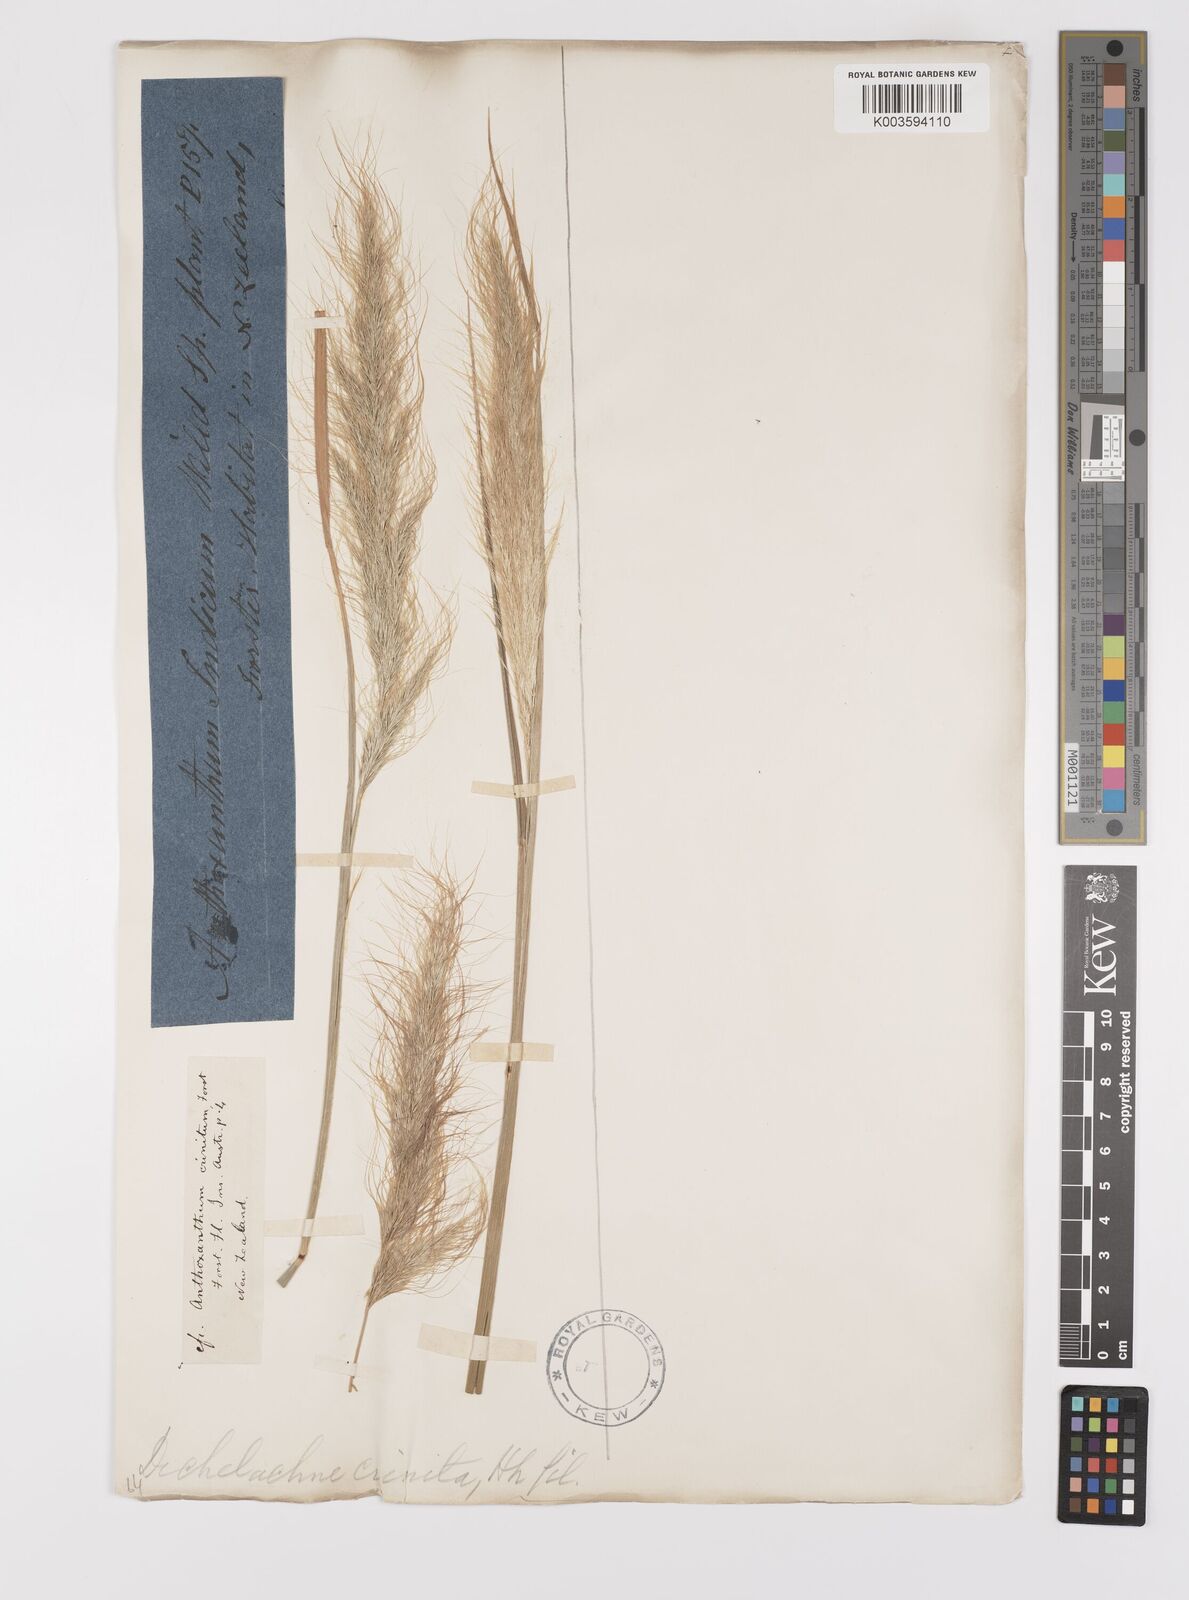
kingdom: Plantae
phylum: Tracheophyta
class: Liliopsida
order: Poales
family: Poaceae
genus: Dichelachne
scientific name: Dichelachne crinita
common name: Clovenfoot plumegrass
